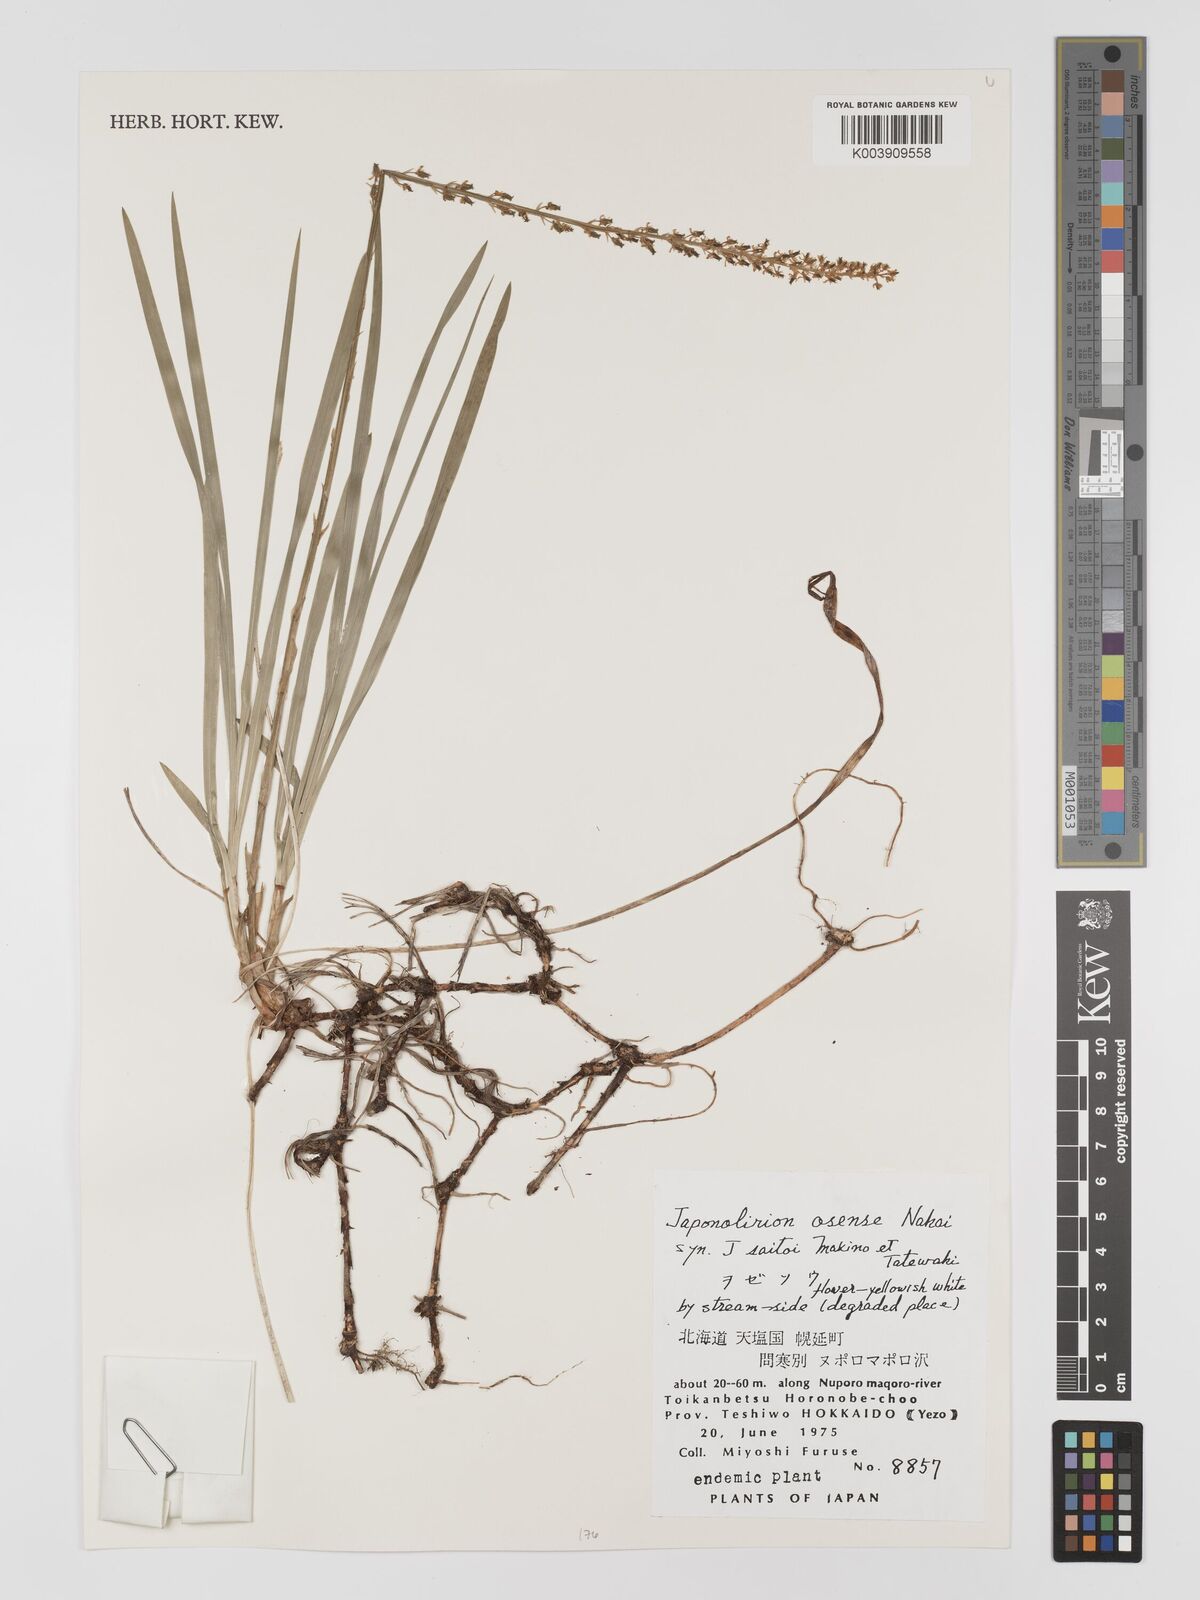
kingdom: Plantae
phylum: Tracheophyta
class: Liliopsida
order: Petrosaviales
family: Petrosaviaceae
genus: Japonolirion
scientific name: Japonolirion osense
